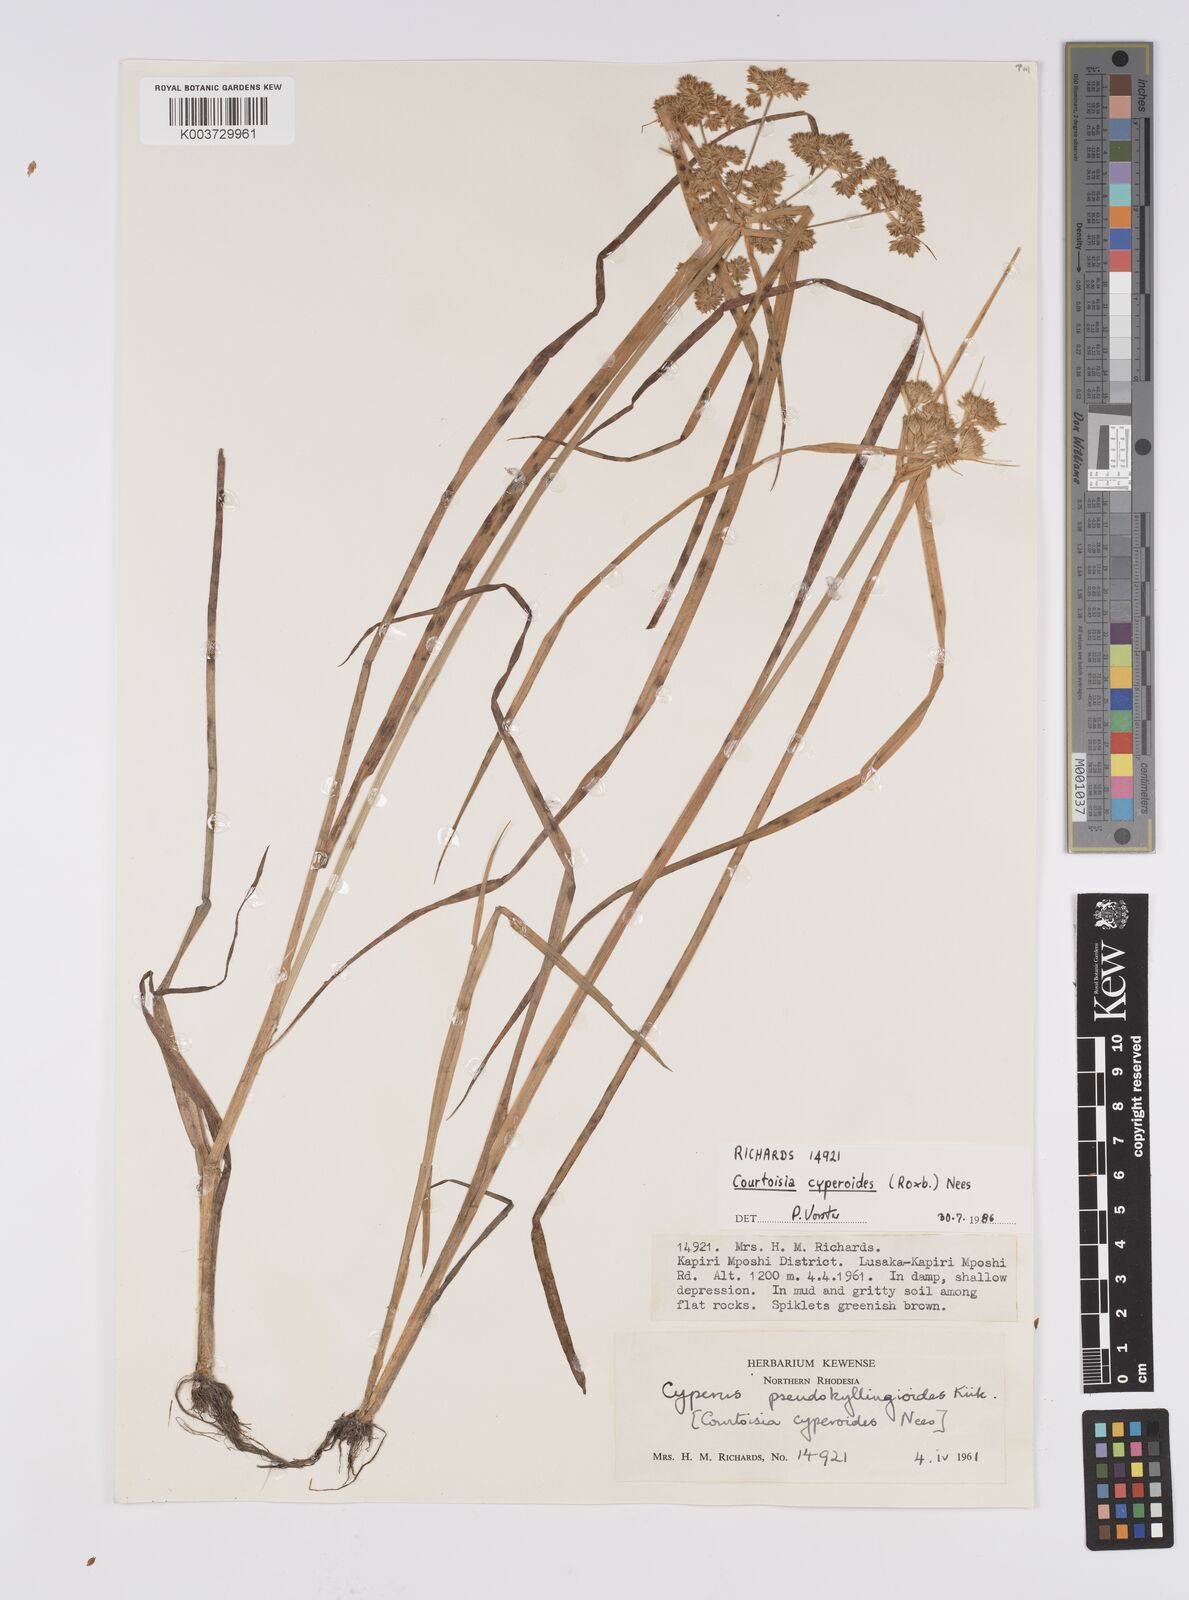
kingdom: Plantae
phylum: Tracheophyta
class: Liliopsida
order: Poales
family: Cyperaceae
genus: Cyperus
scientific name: Cyperus cyperoides
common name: Pacific island flat sedge
